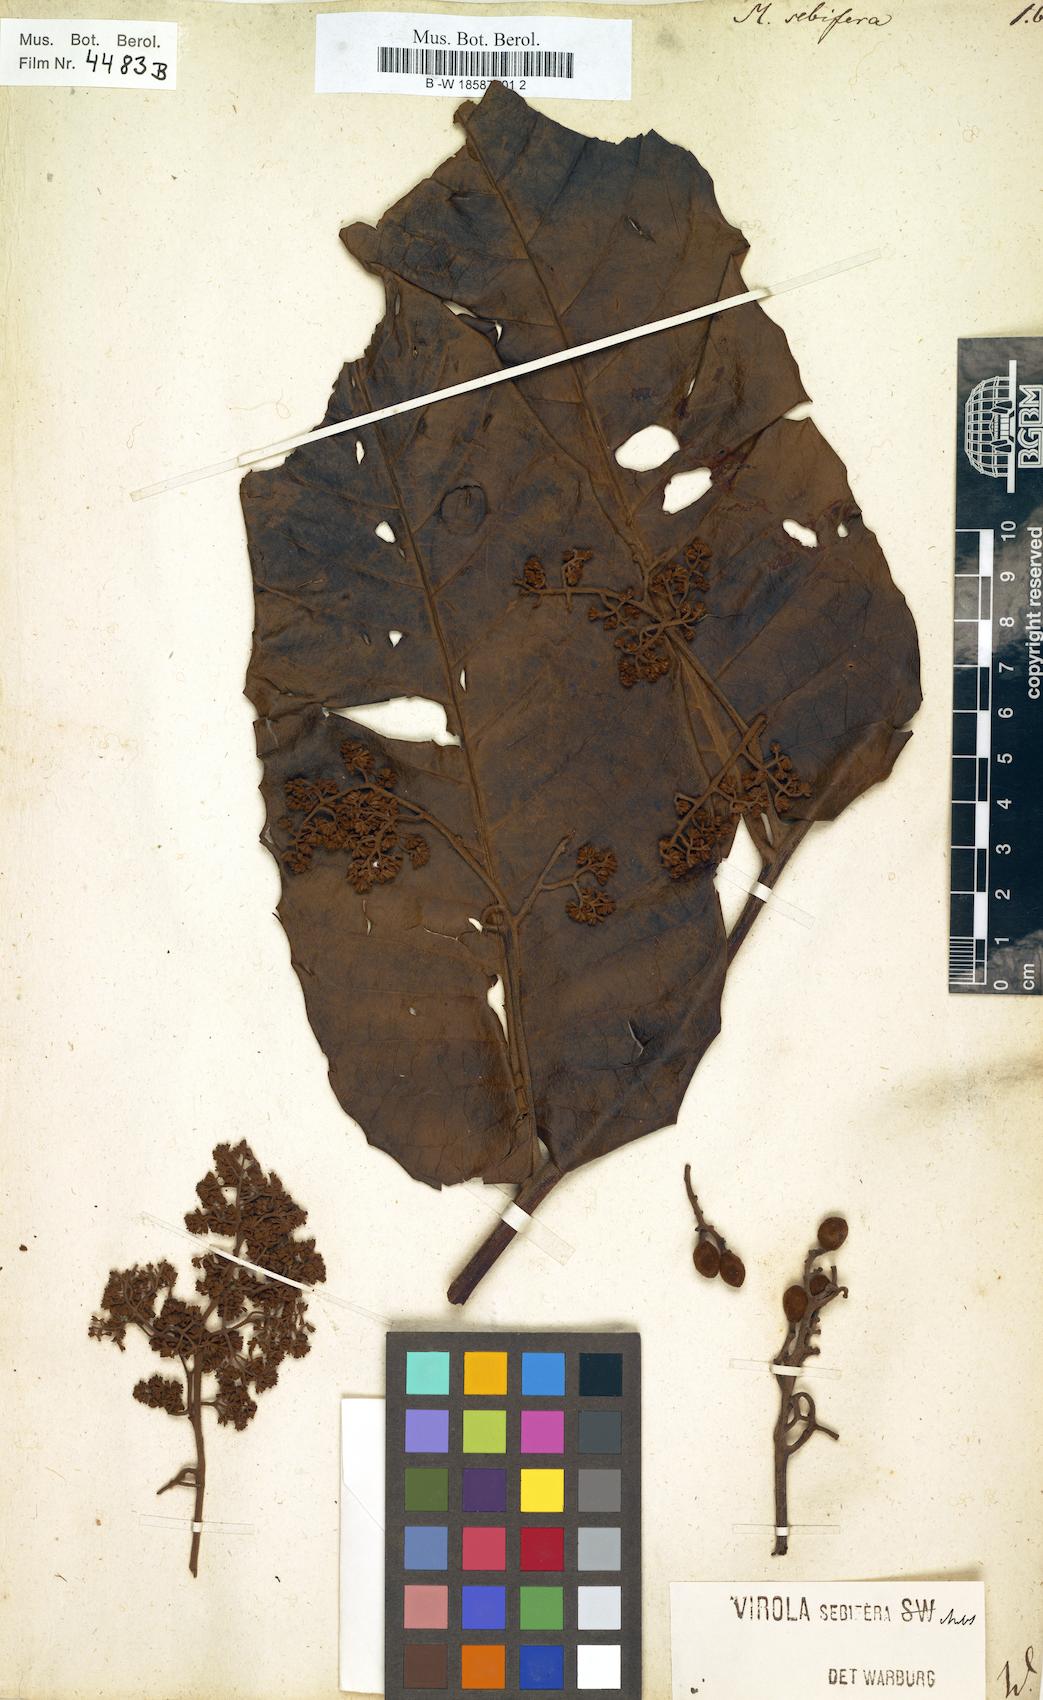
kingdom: Plantae
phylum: Tracheophyta
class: Magnoliopsida
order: Magnoliales
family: Myristicaceae
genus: Myristica
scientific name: Myristica sebifera
